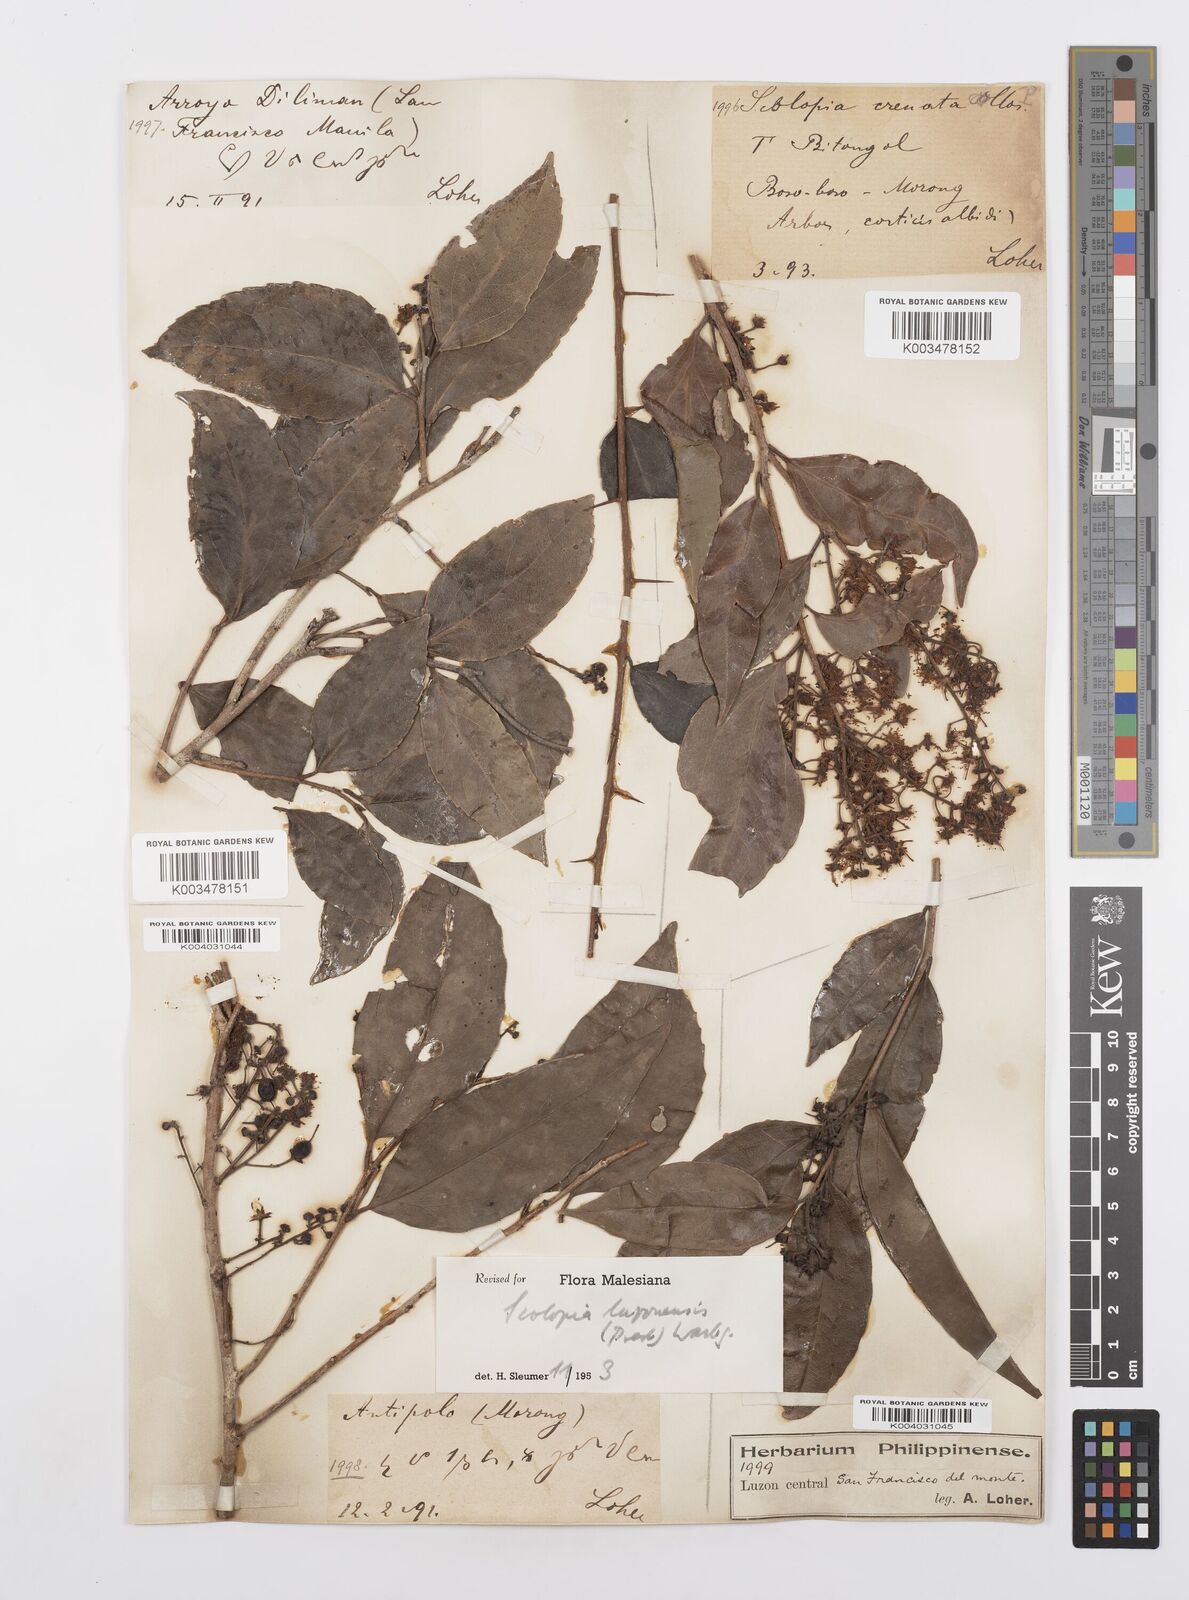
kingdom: Plantae
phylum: Tracheophyta
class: Magnoliopsida
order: Malpighiales
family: Salicaceae
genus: Scolopia
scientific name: Scolopia luzonensis
